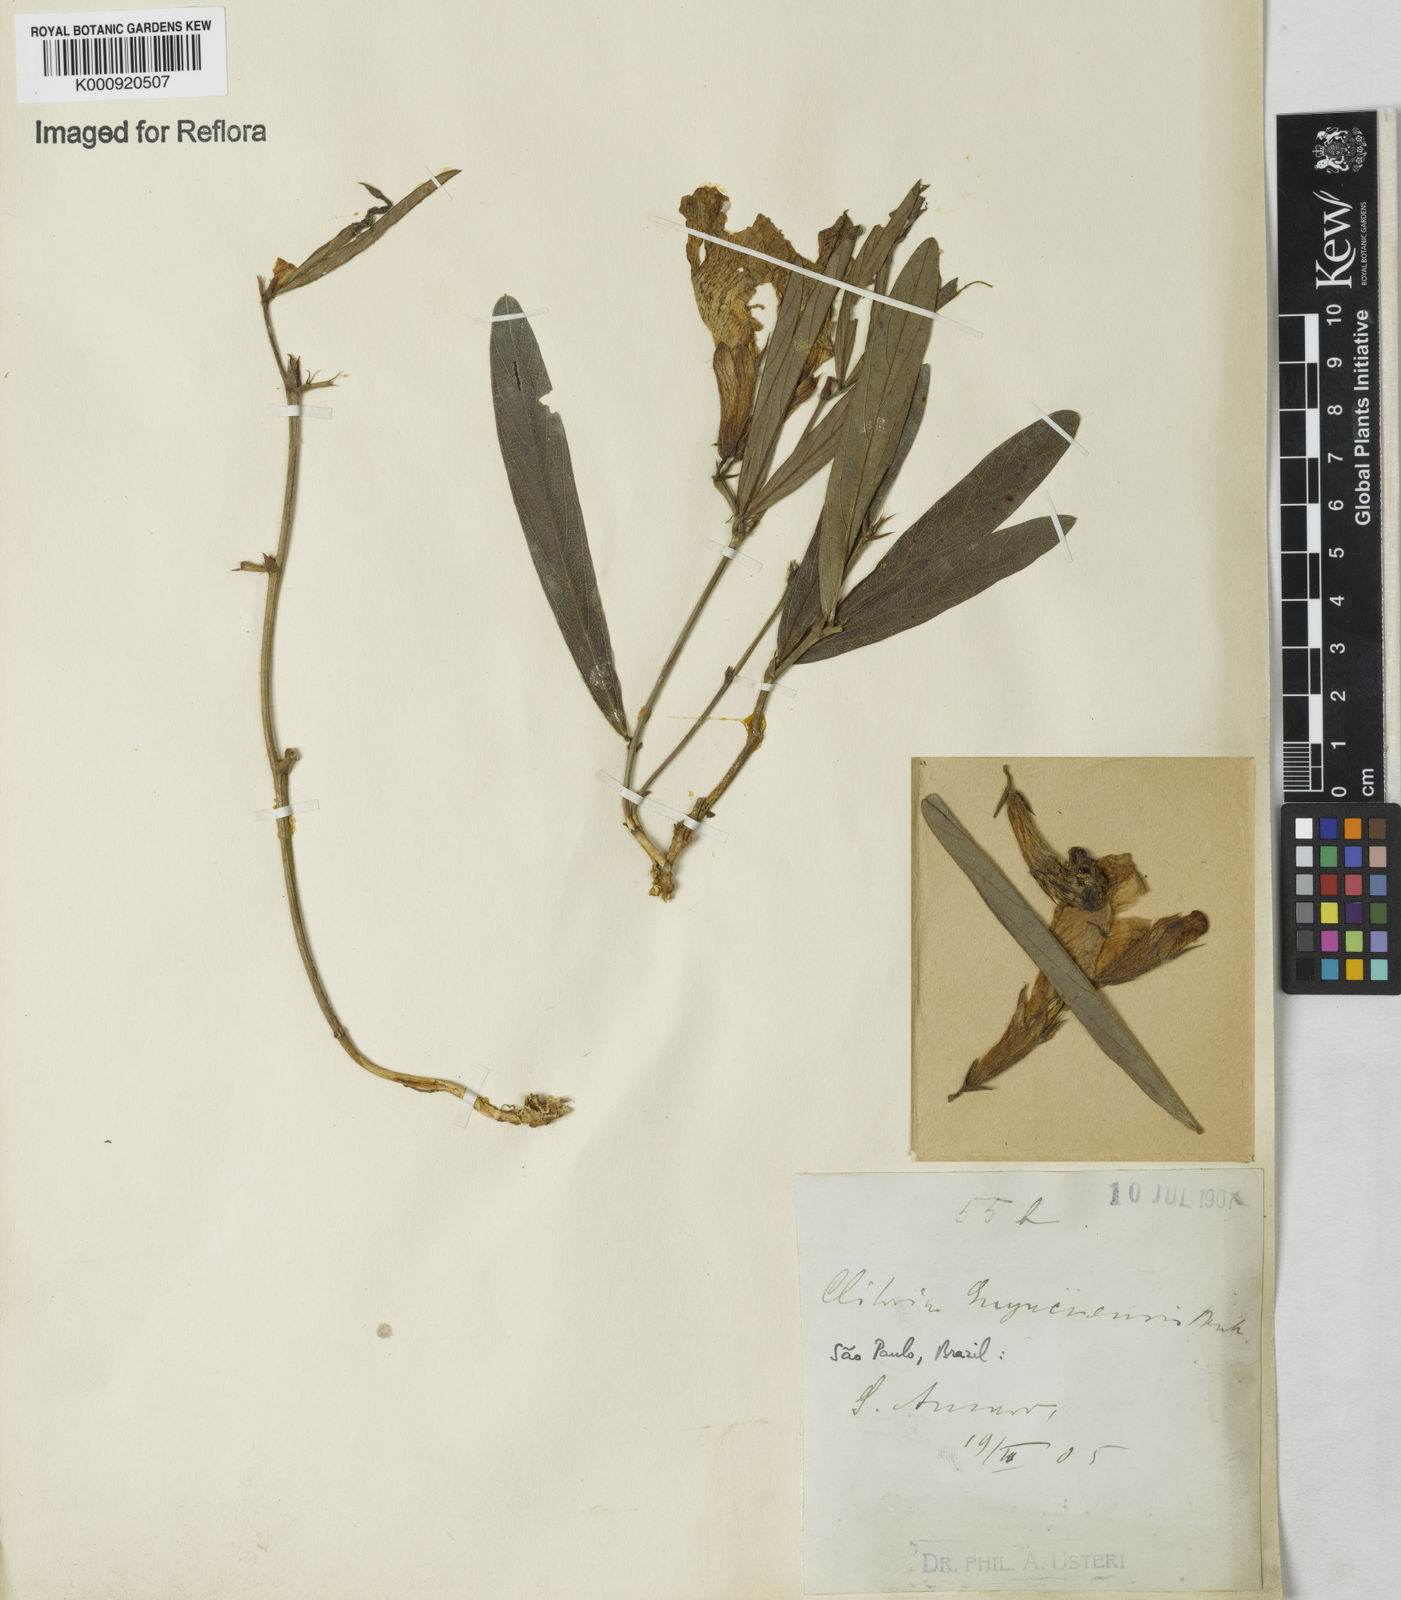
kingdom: Plantae
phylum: Tracheophyta
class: Magnoliopsida
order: Fabales
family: Fabaceae
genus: Clitoria
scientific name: Clitoria guianensis
